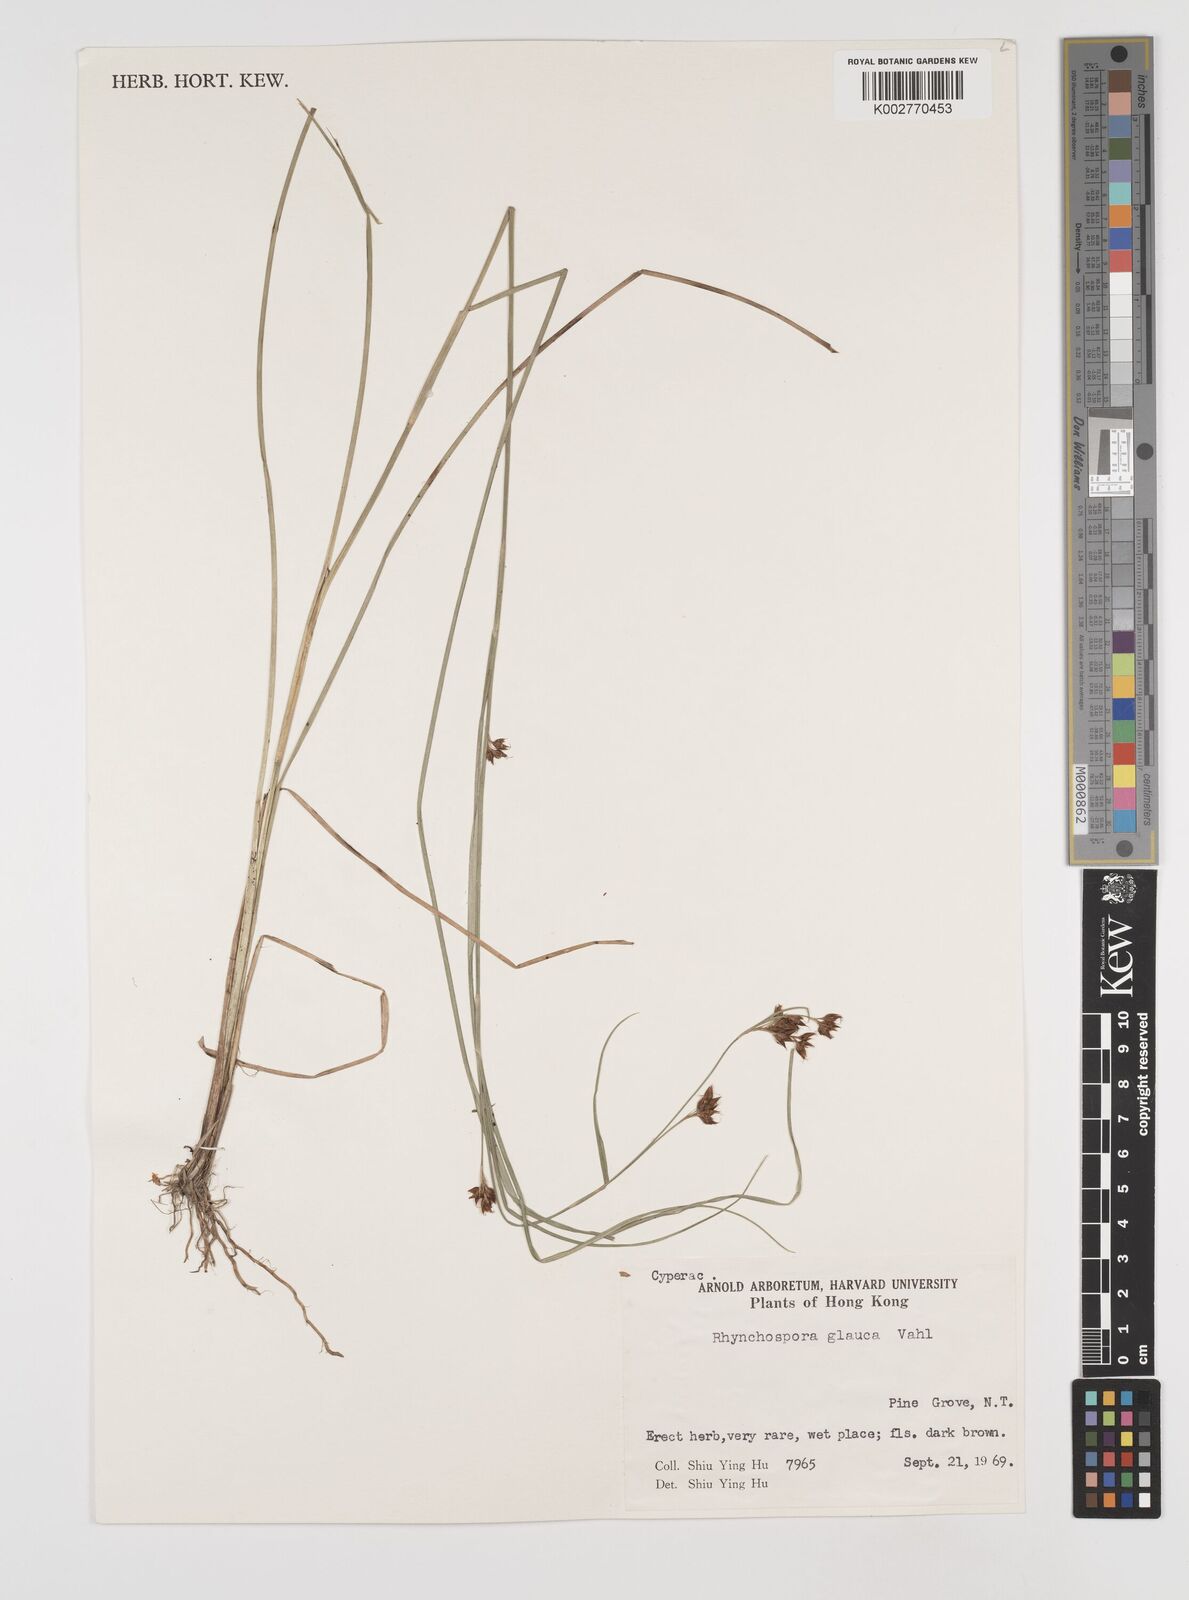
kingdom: Plantae
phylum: Tracheophyta
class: Liliopsida
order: Poales
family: Cyperaceae
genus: Rhynchospora
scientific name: Rhynchospora
